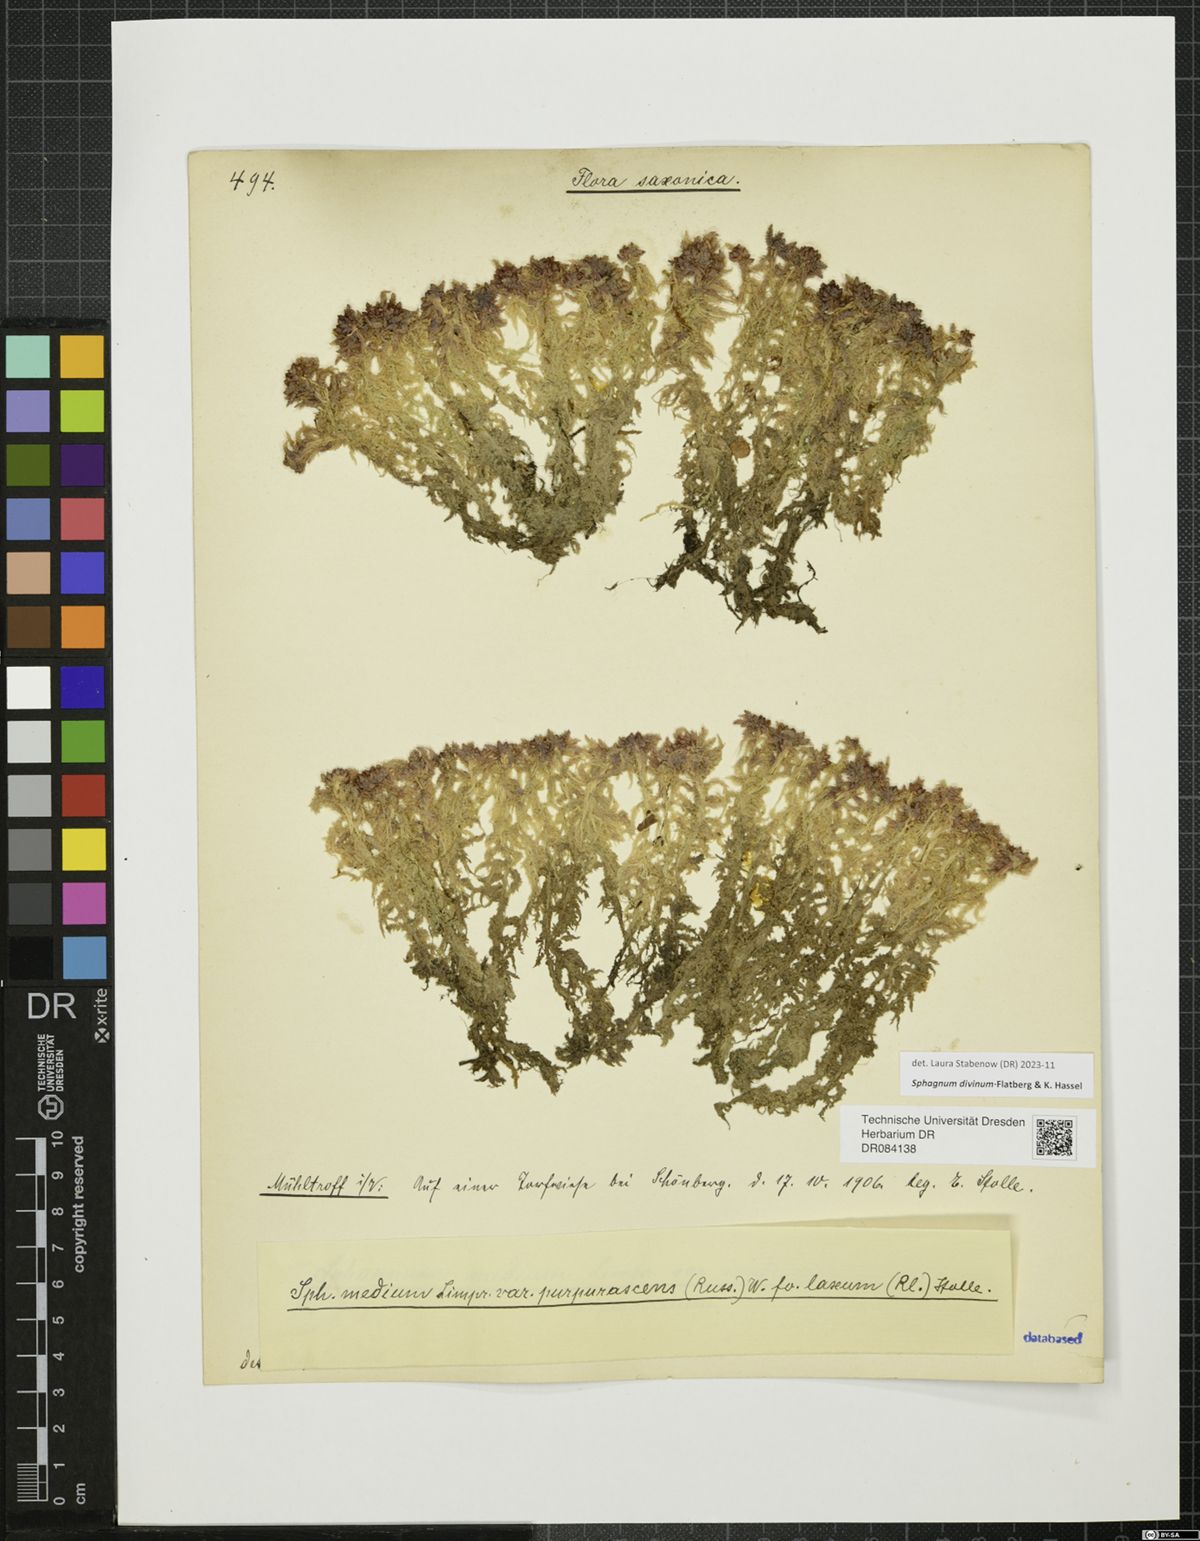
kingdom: Plantae
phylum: Bryophyta
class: Sphagnopsida
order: Sphagnales
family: Sphagnaceae
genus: Sphagnum
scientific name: Sphagnum divinum
